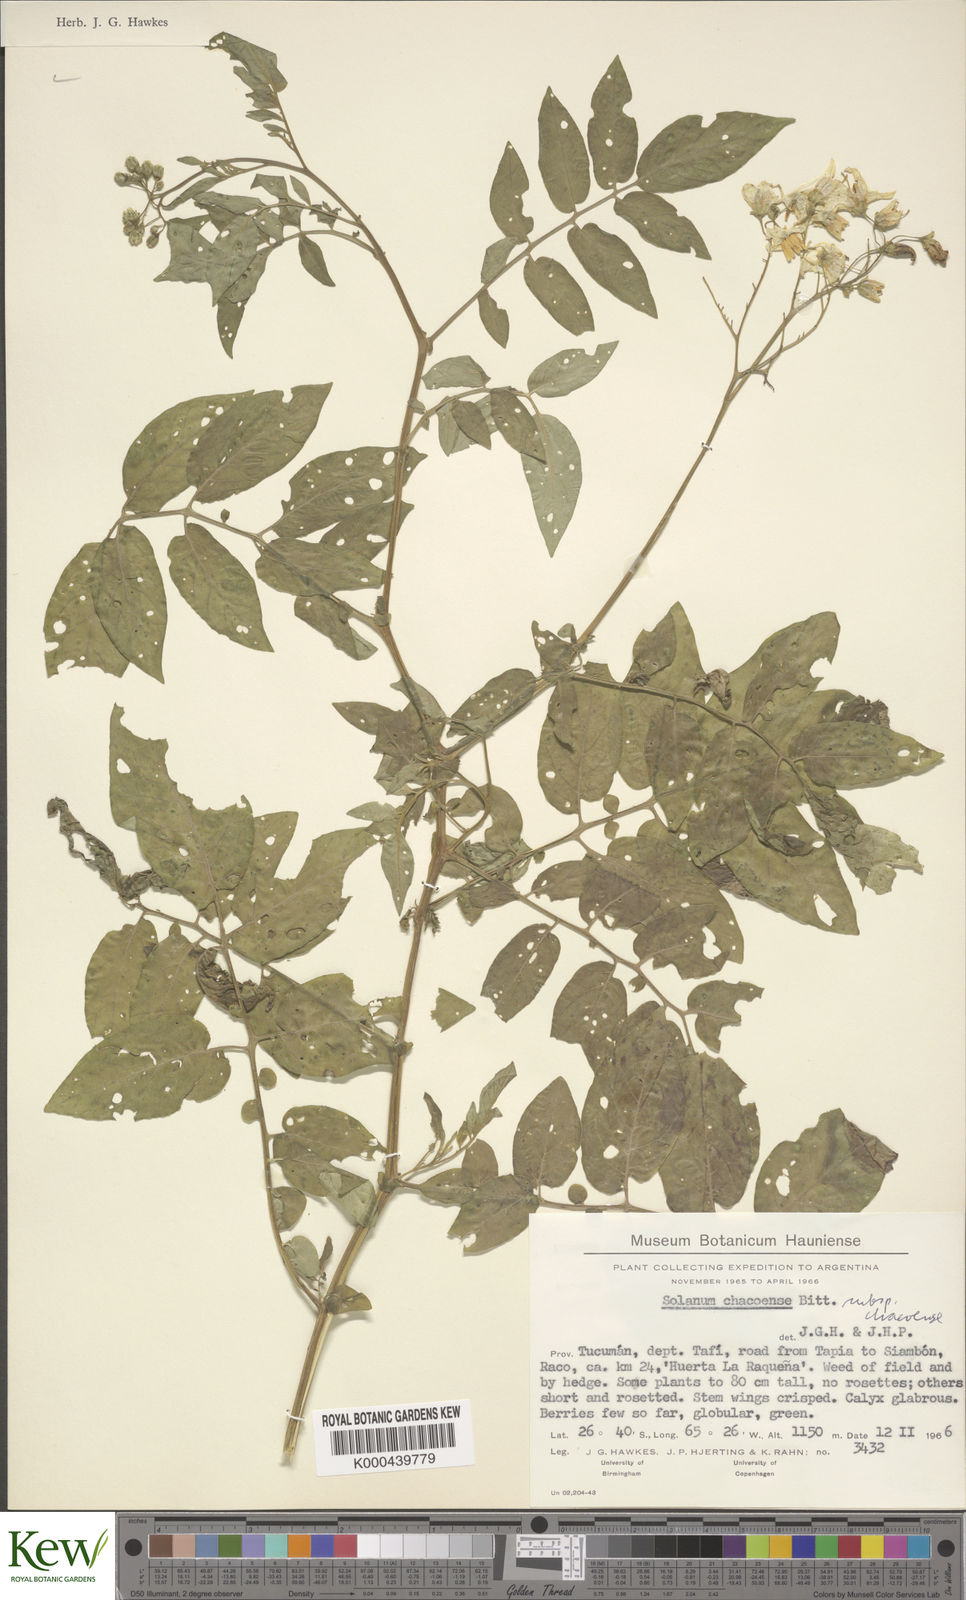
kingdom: Plantae
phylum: Tracheophyta
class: Magnoliopsida
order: Solanales
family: Solanaceae
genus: Solanum
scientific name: Solanum chacoense
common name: Chaco potato
